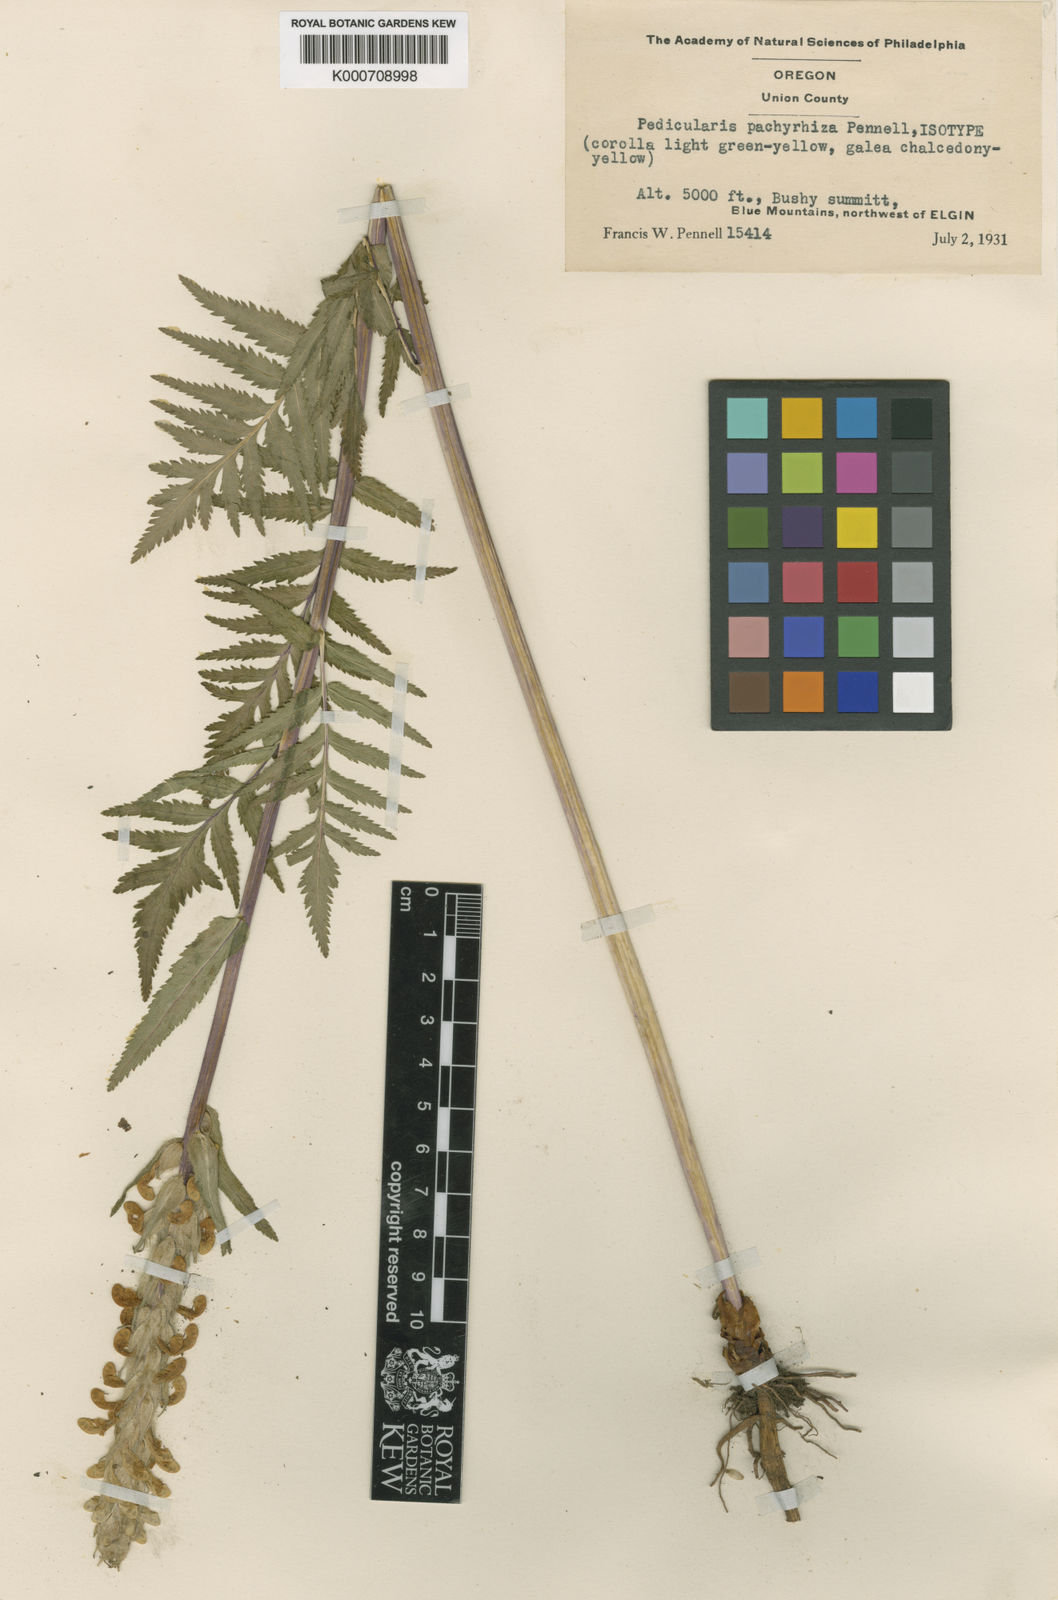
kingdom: Plantae
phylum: Tracheophyta
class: Magnoliopsida
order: Lamiales
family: Orobanchaceae
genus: Pedicularis
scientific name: Pedicularis bracteosa
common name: Bracted lousewort
